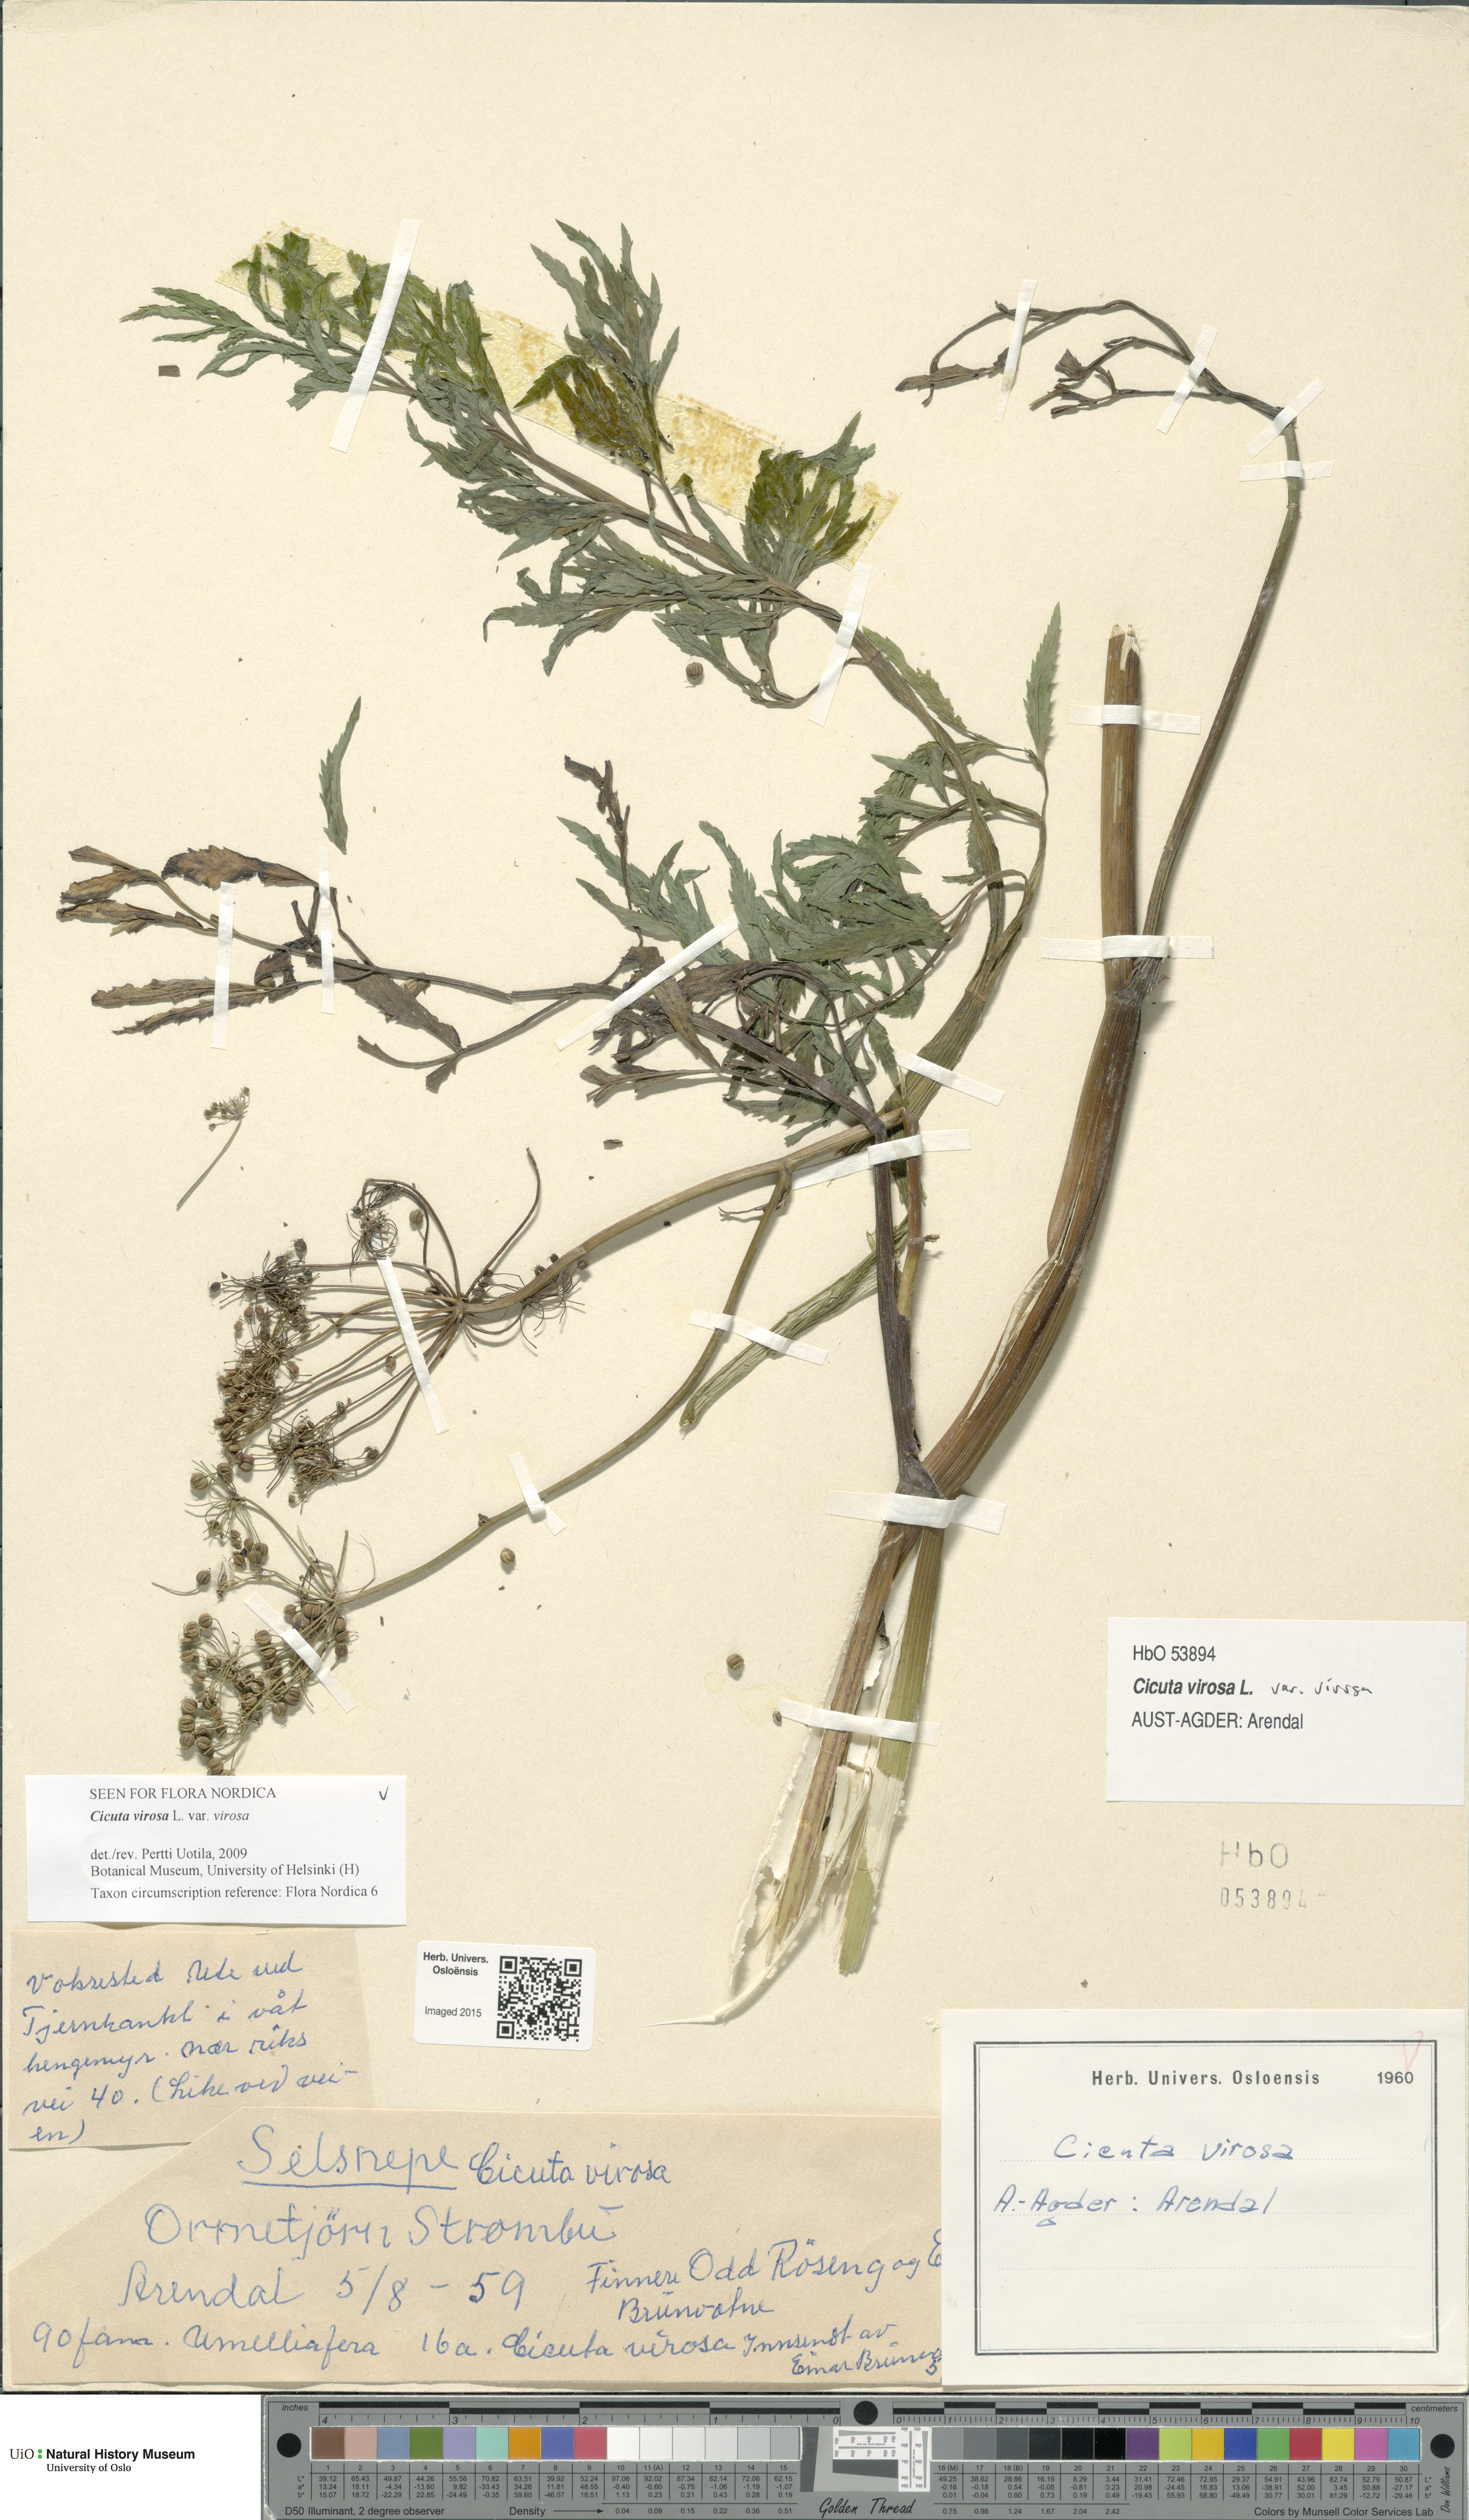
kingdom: Plantae
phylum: Tracheophyta
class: Magnoliopsida
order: Apiales
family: Apiaceae
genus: Cicuta
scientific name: Cicuta virosa
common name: Cowbane
